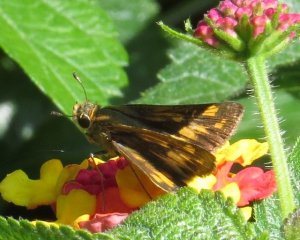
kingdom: Animalia
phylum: Arthropoda
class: Insecta
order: Lepidoptera
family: Hesperiidae
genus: Hylephila
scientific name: Hylephila phyleus
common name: Fiery Skipper
